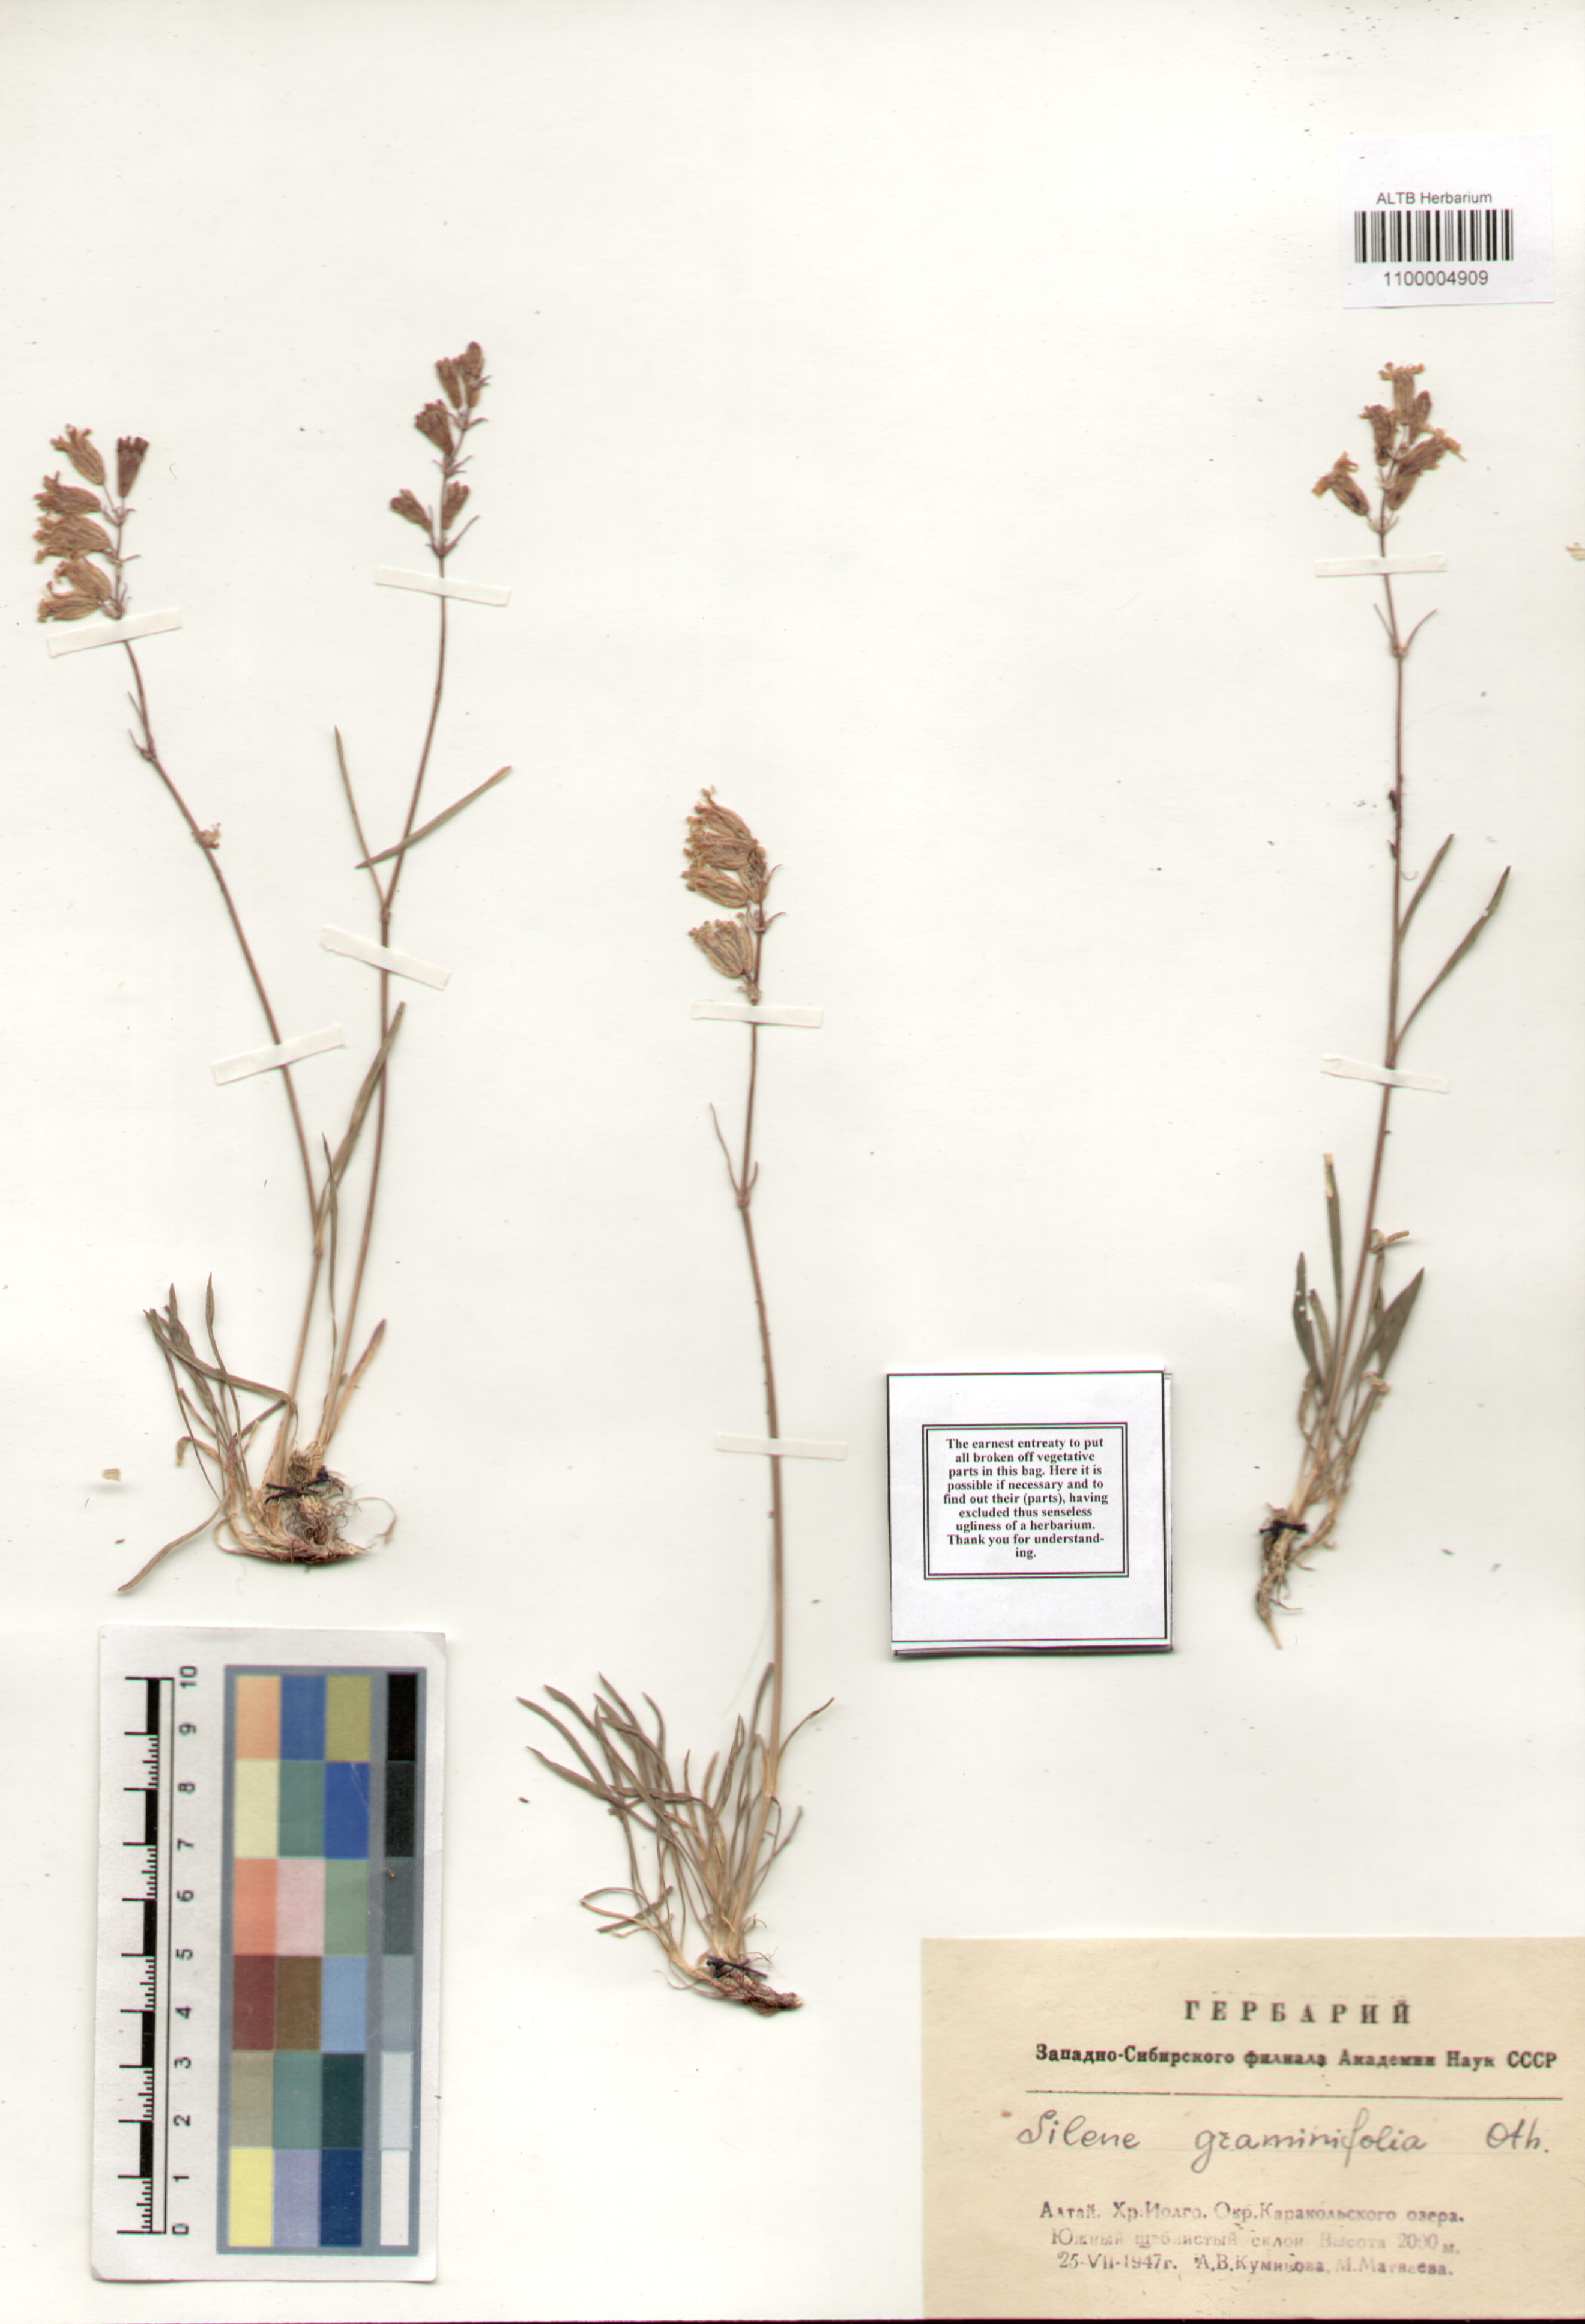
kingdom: Plantae
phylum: Tracheophyta
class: Magnoliopsida
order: Caryophyllales
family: Caryophyllaceae
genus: Silene
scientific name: Silene graminifolia
